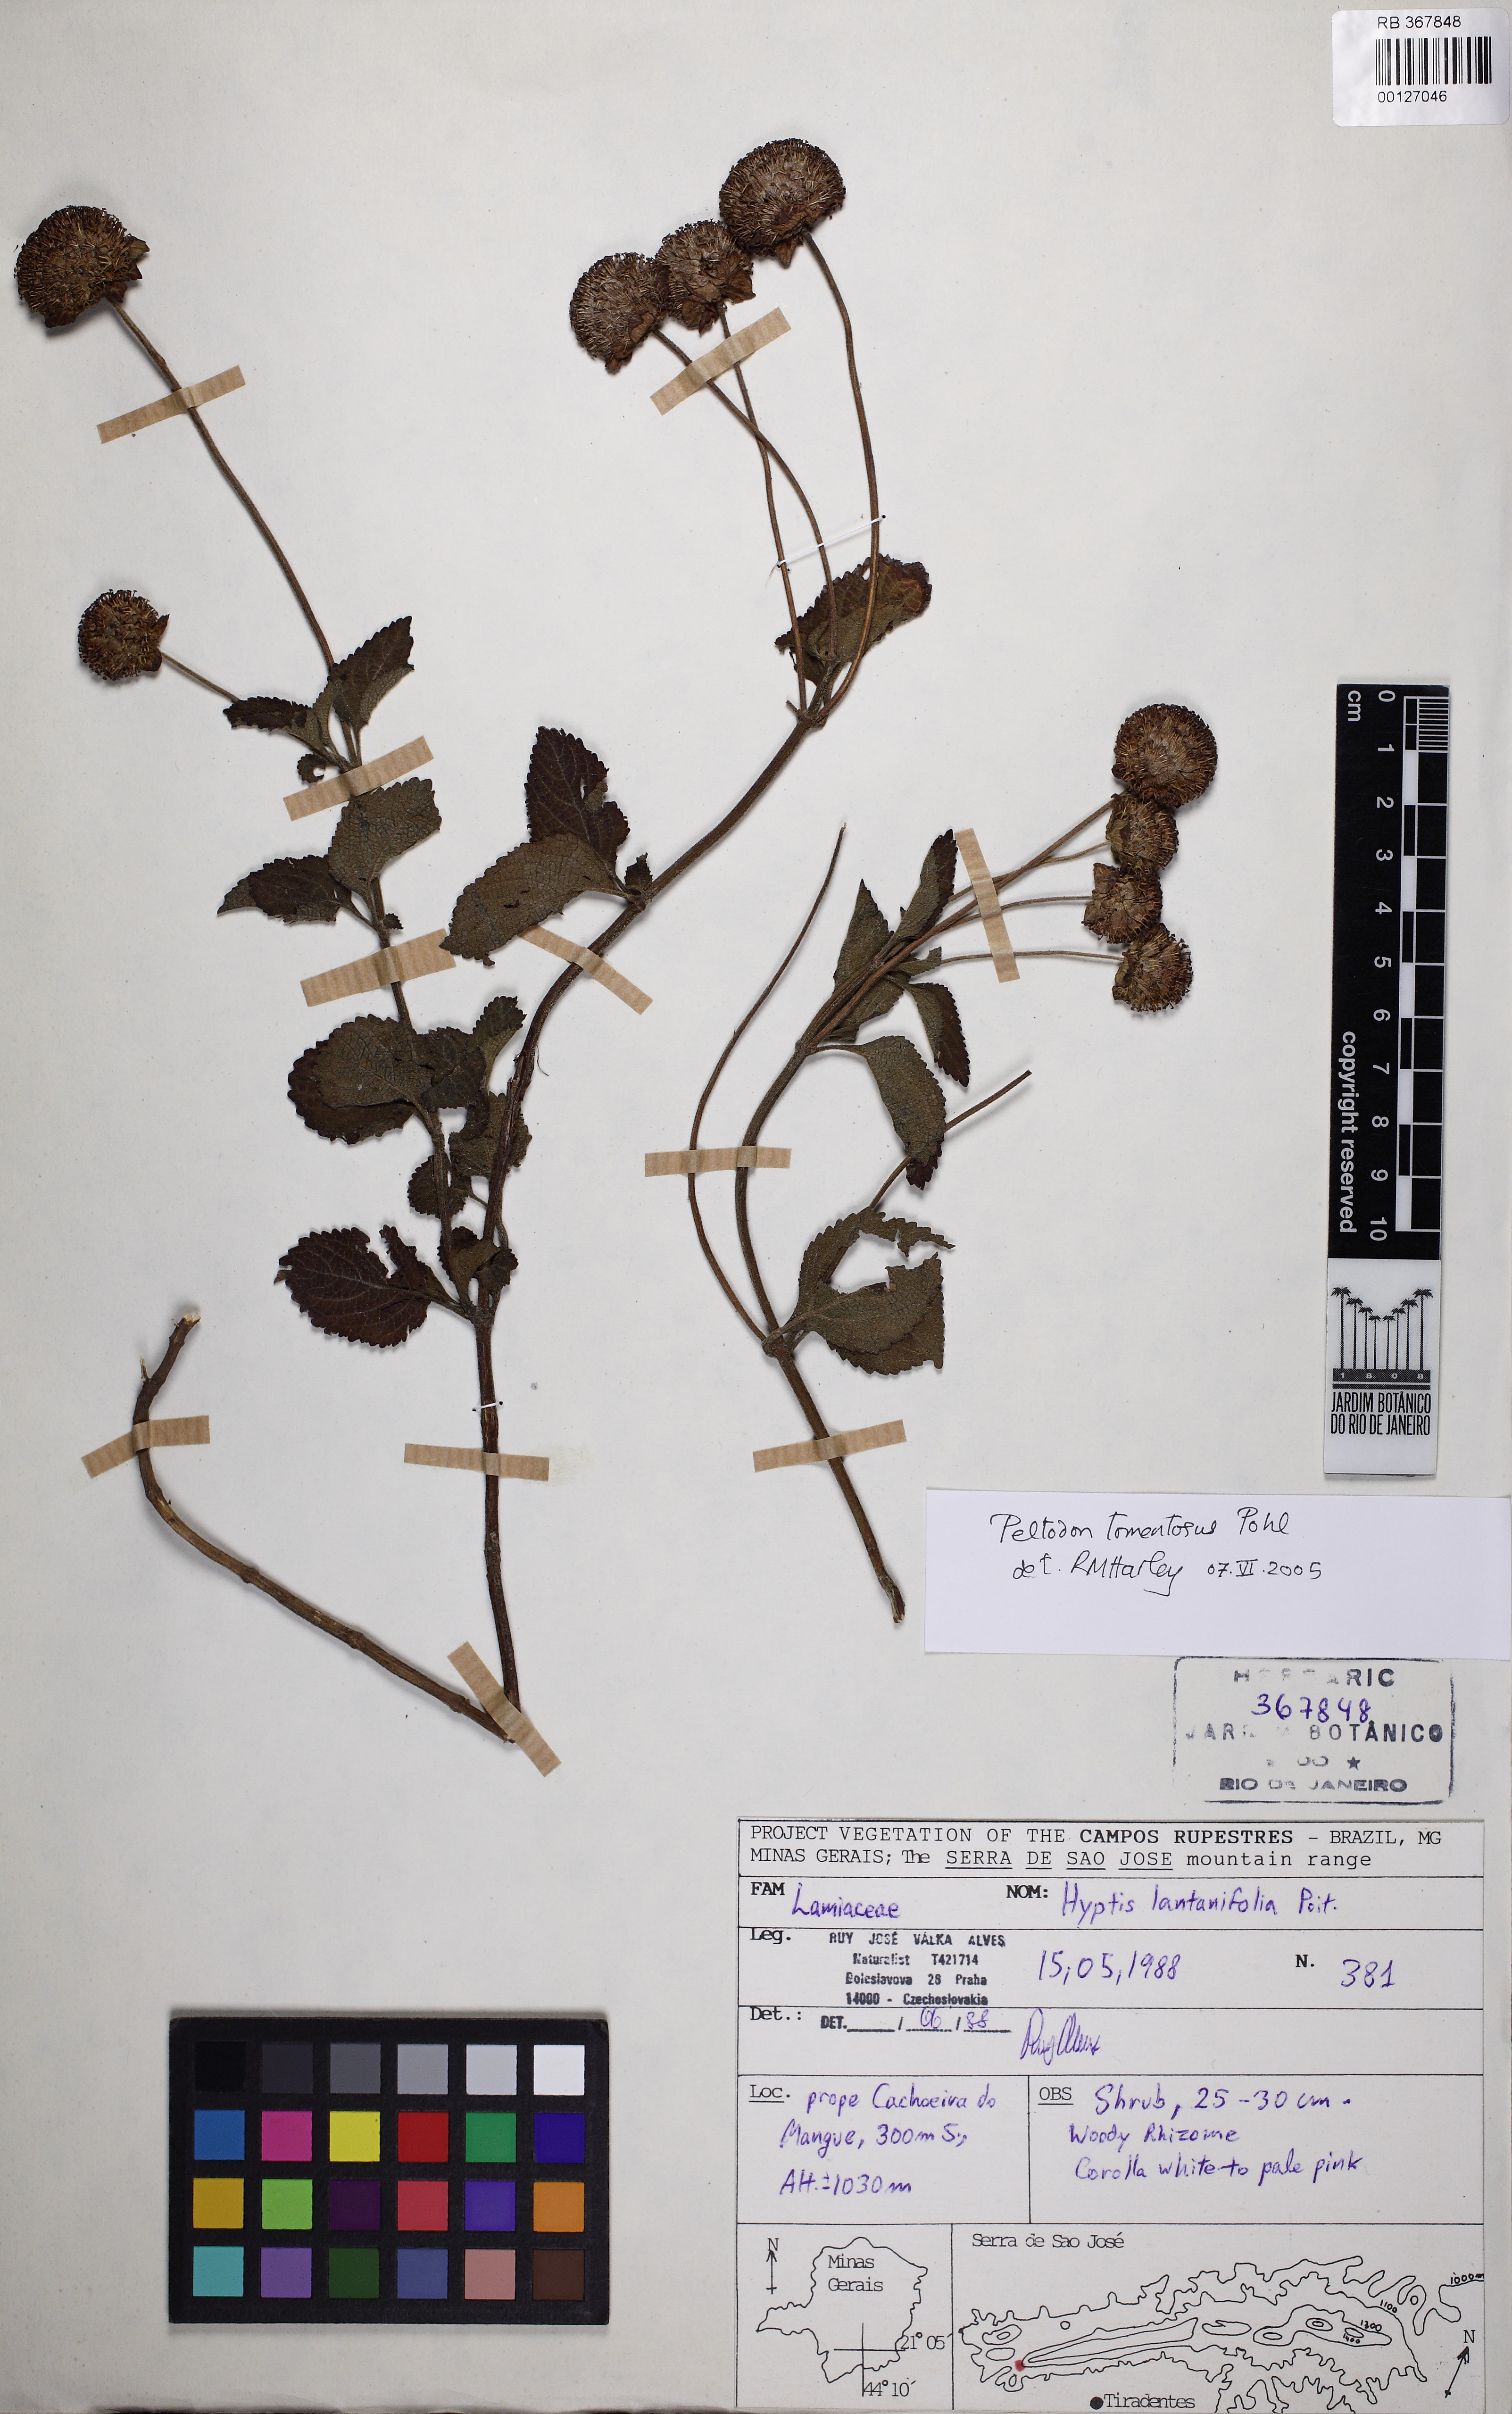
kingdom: Plantae
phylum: Tracheophyta
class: Magnoliopsida
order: Lamiales
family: Lamiaceae
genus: Hyptis
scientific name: Hyptis campestris
